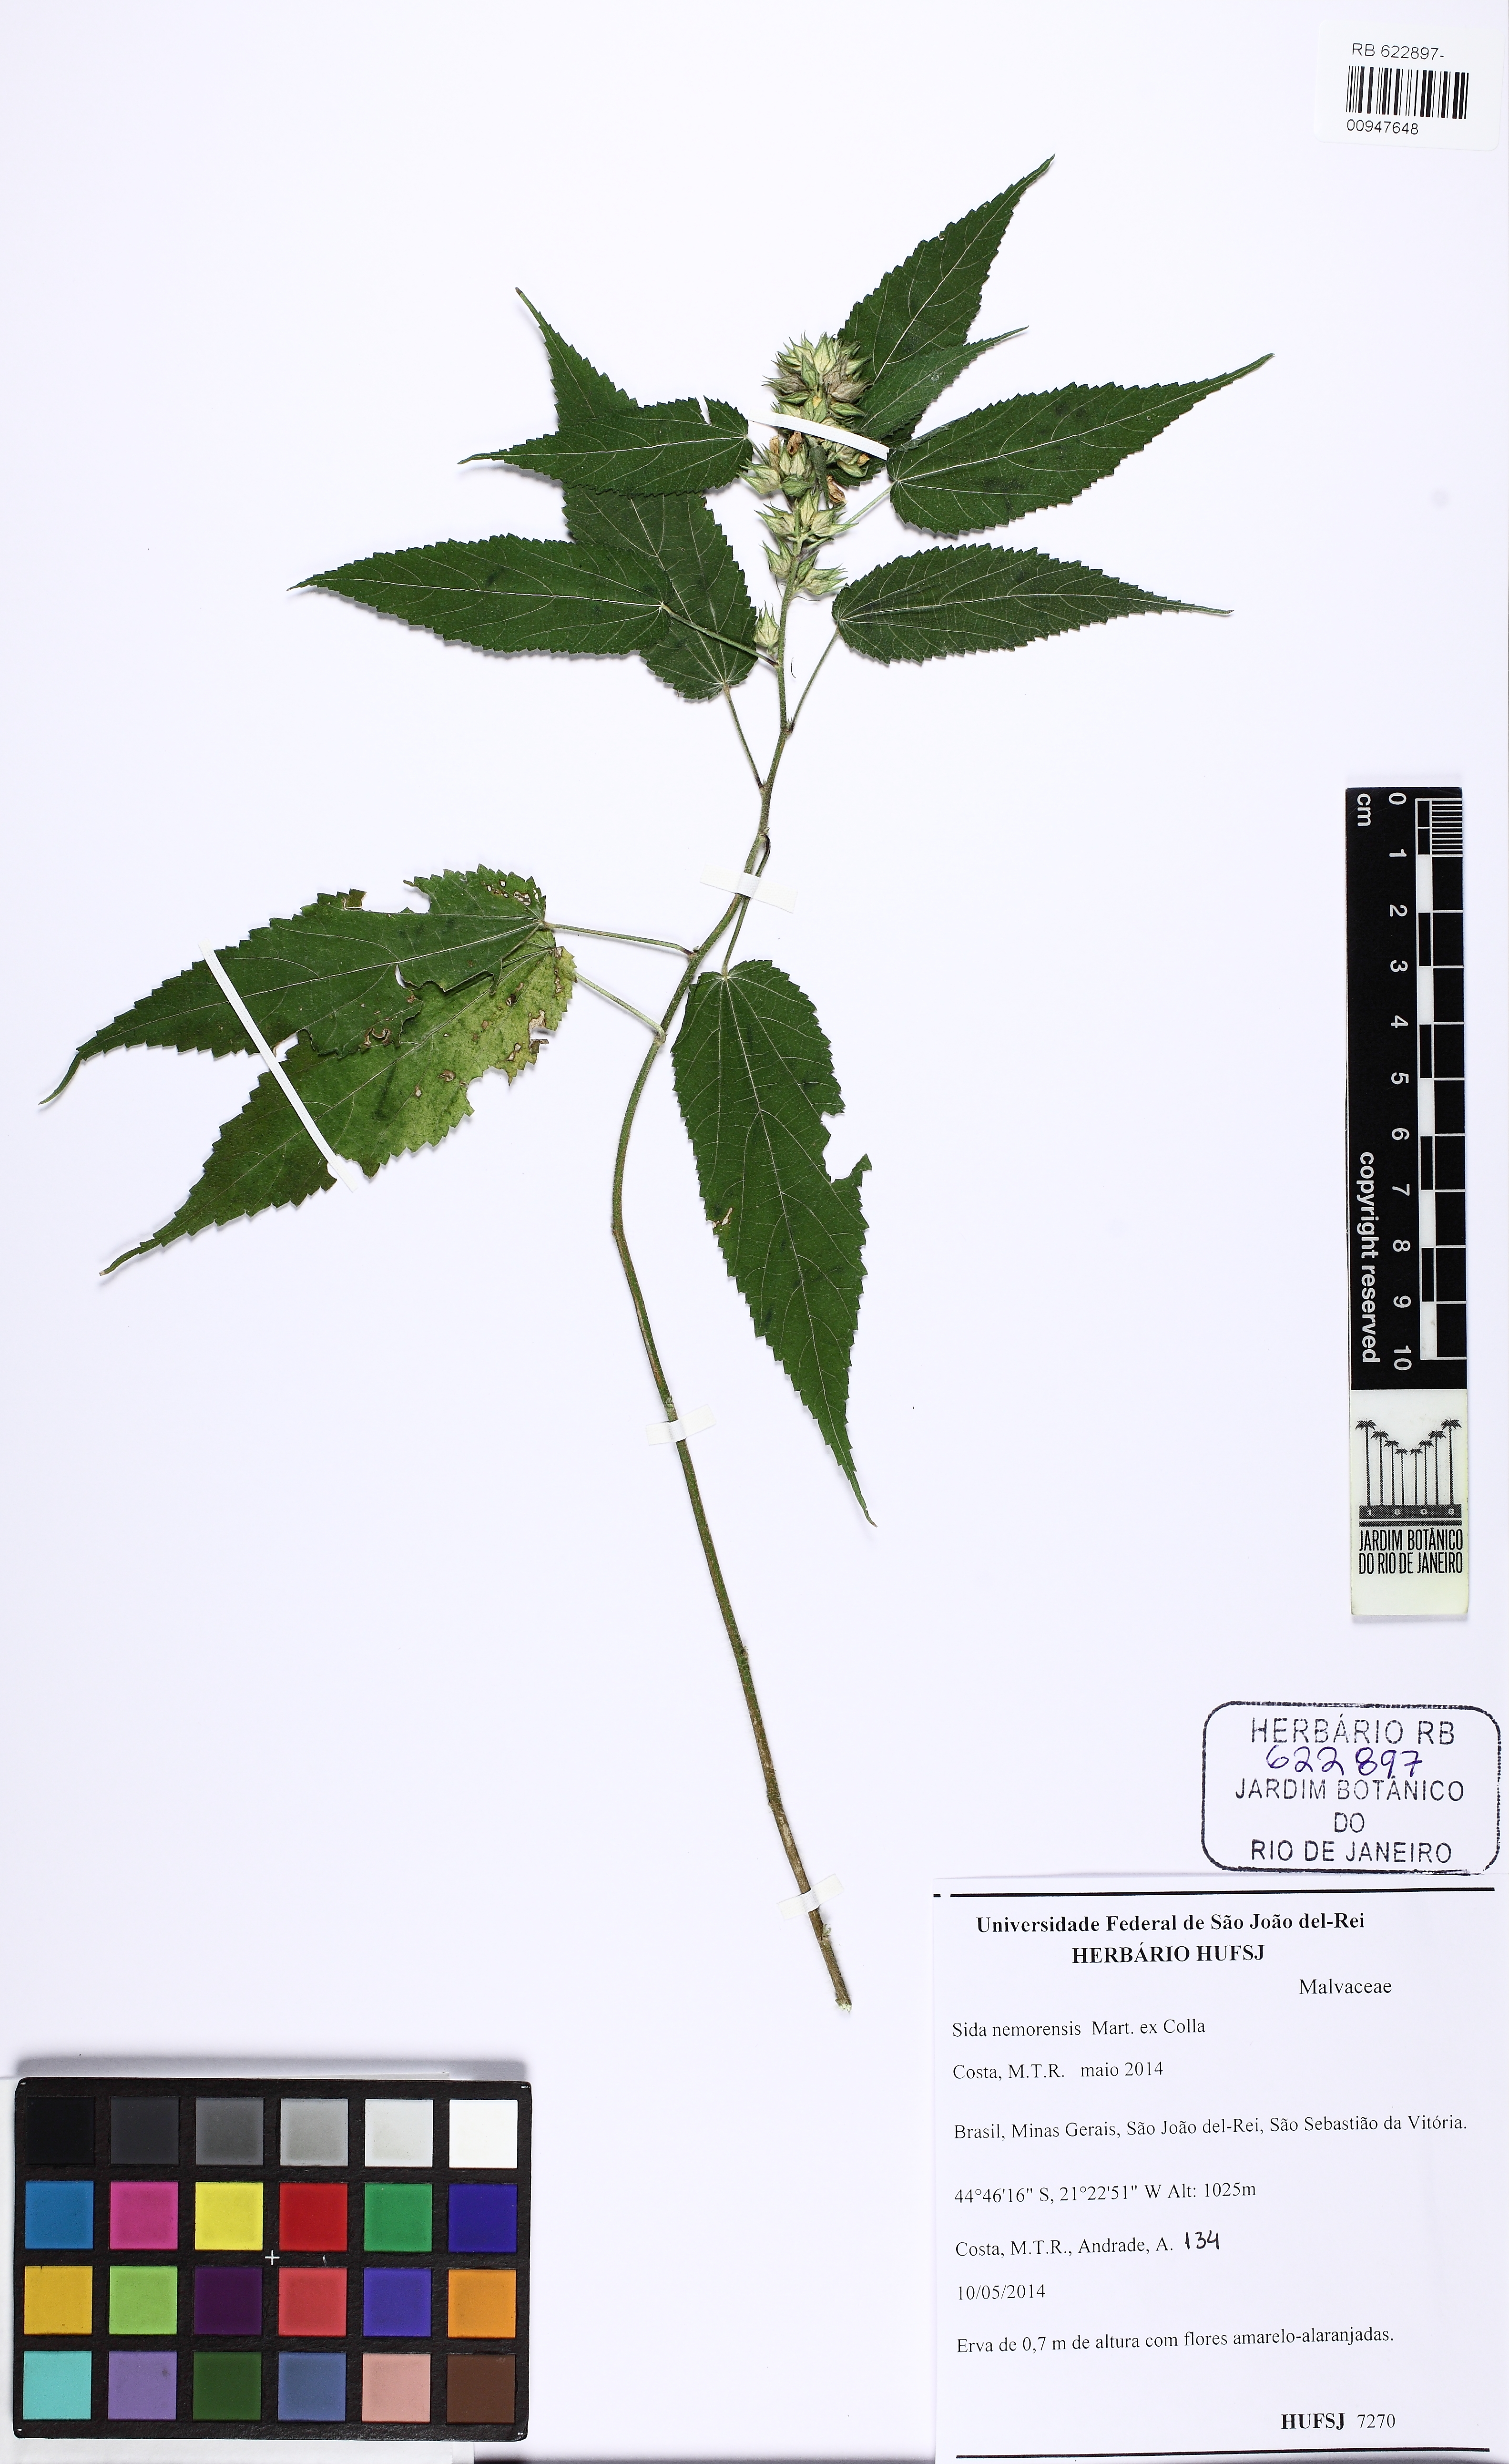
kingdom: Plantae
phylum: Tracheophyta
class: Magnoliopsida
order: Malvales
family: Malvaceae
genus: Sida
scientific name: Sida nemorensis
